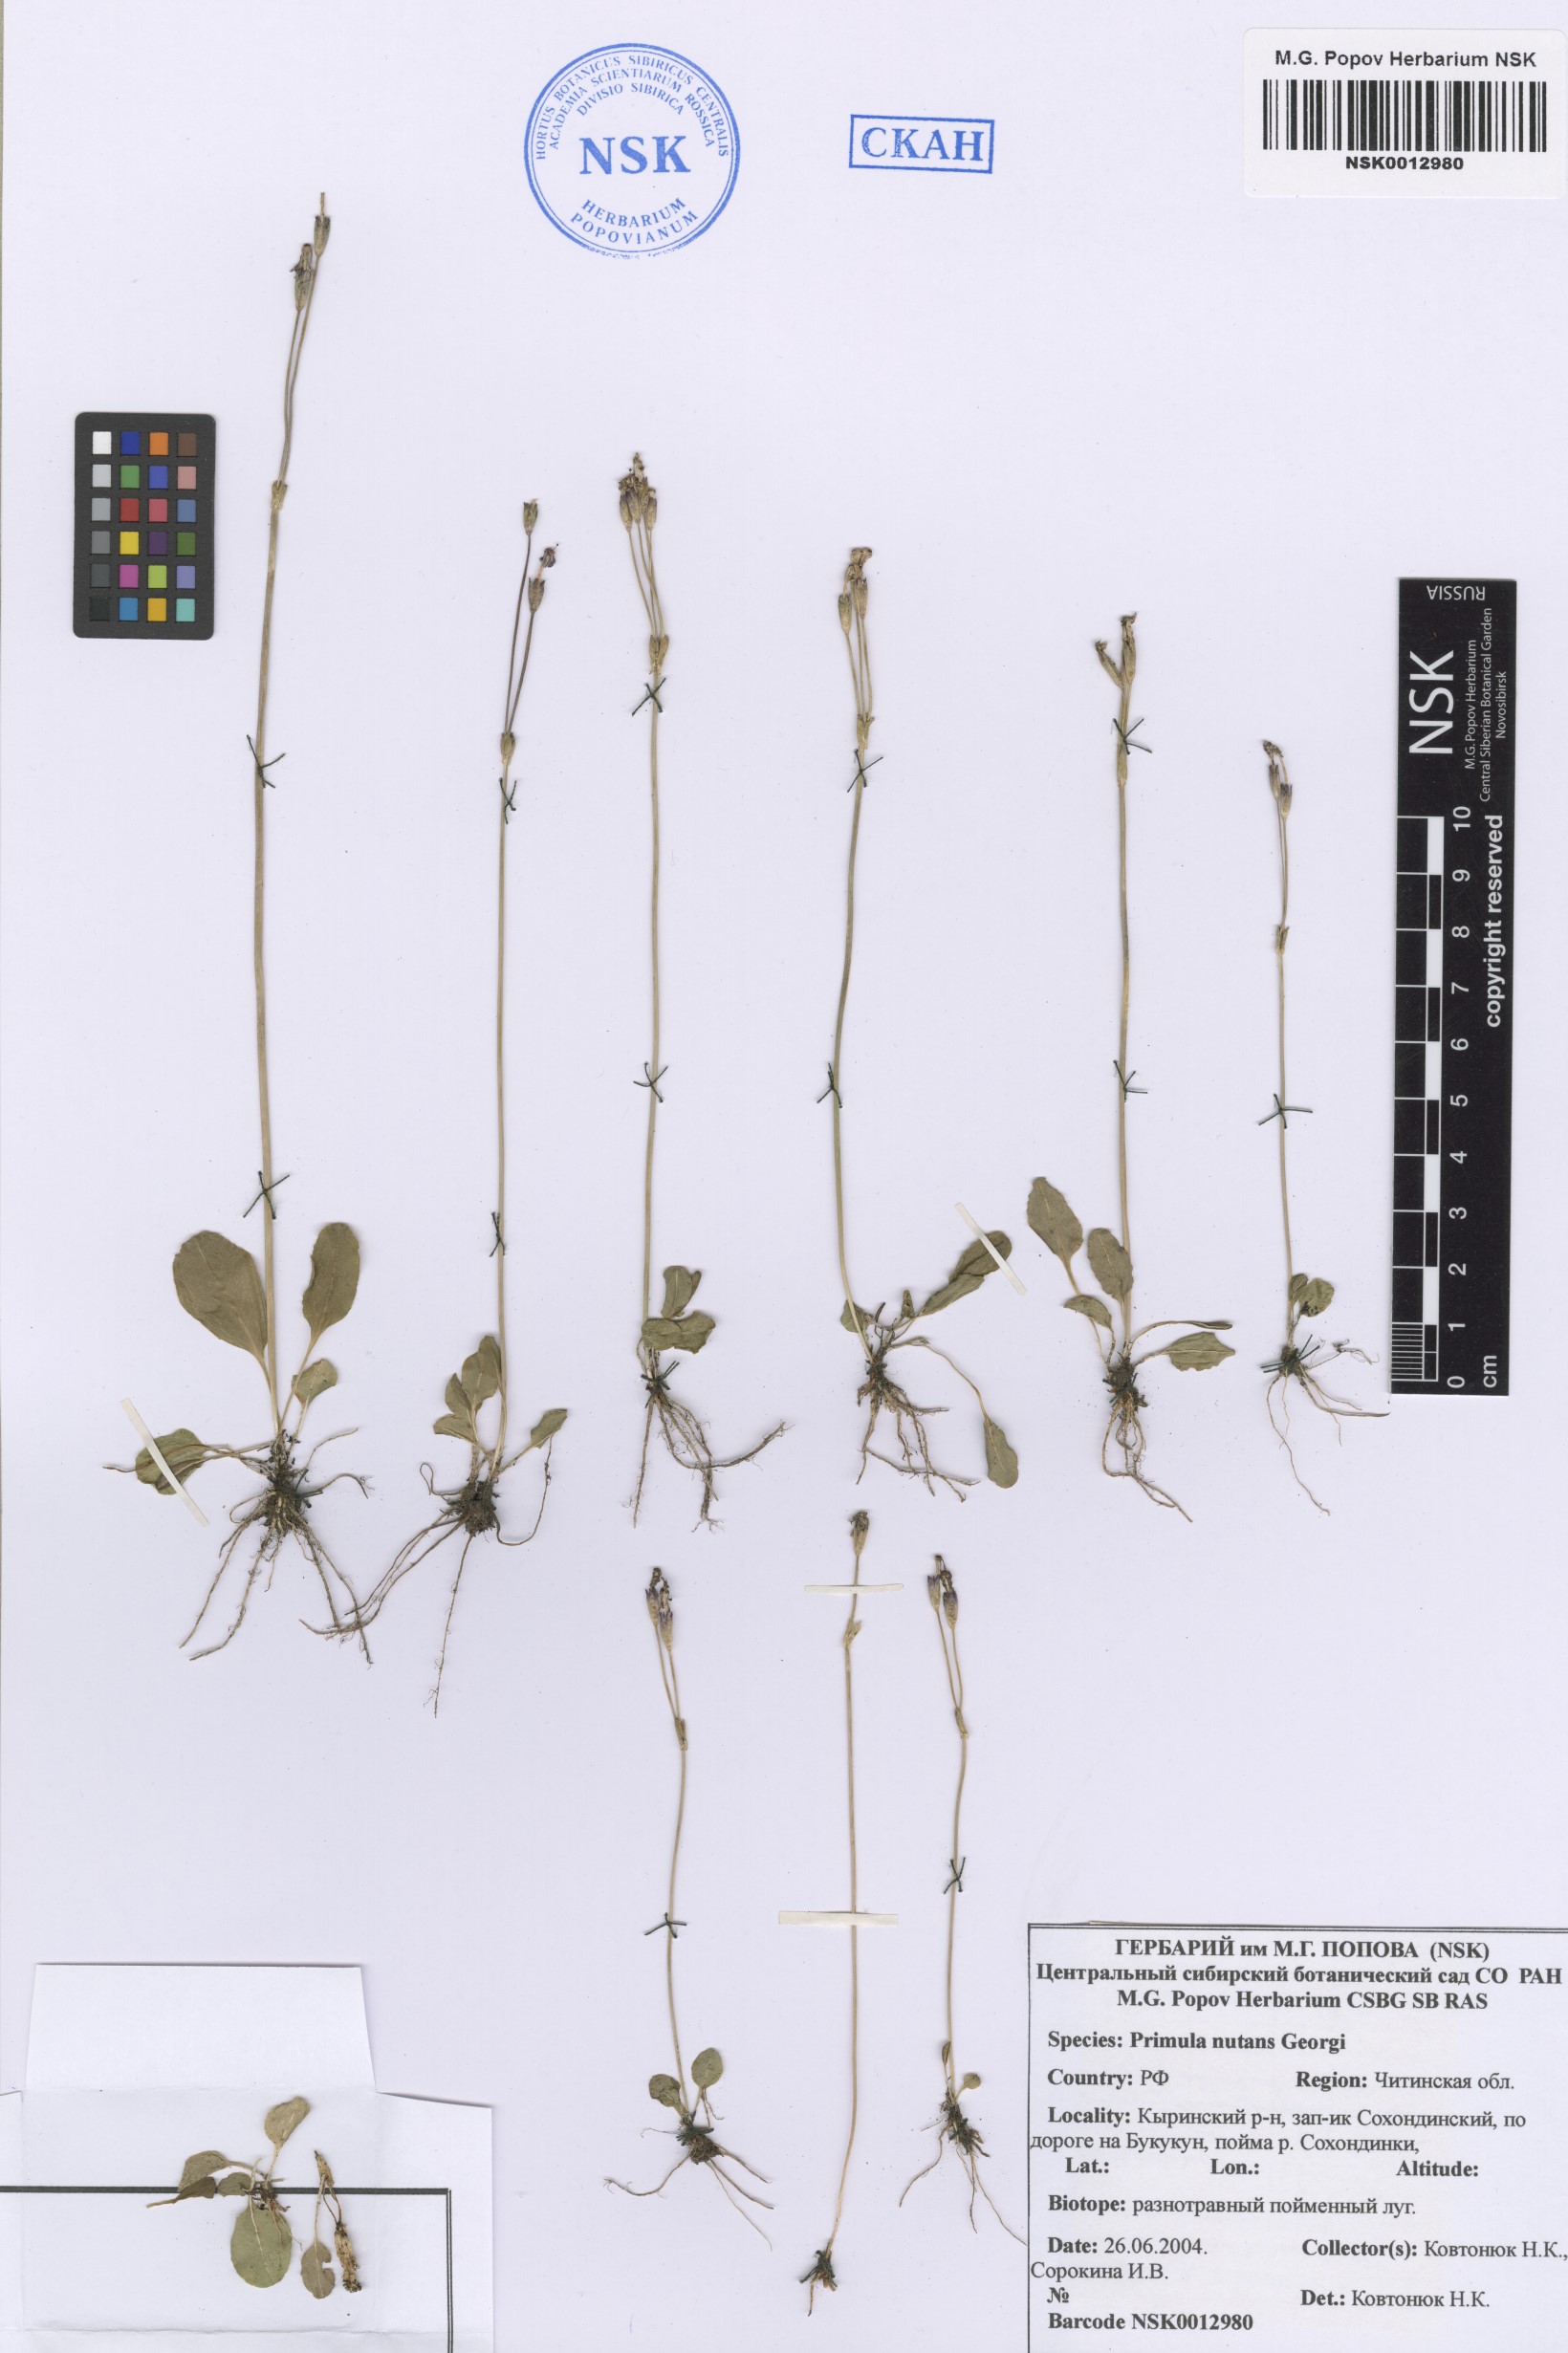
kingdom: Plantae
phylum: Tracheophyta
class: Magnoliopsida
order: Ericales
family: Primulaceae
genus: Primula
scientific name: Primula nutans
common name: Siberian primrose
